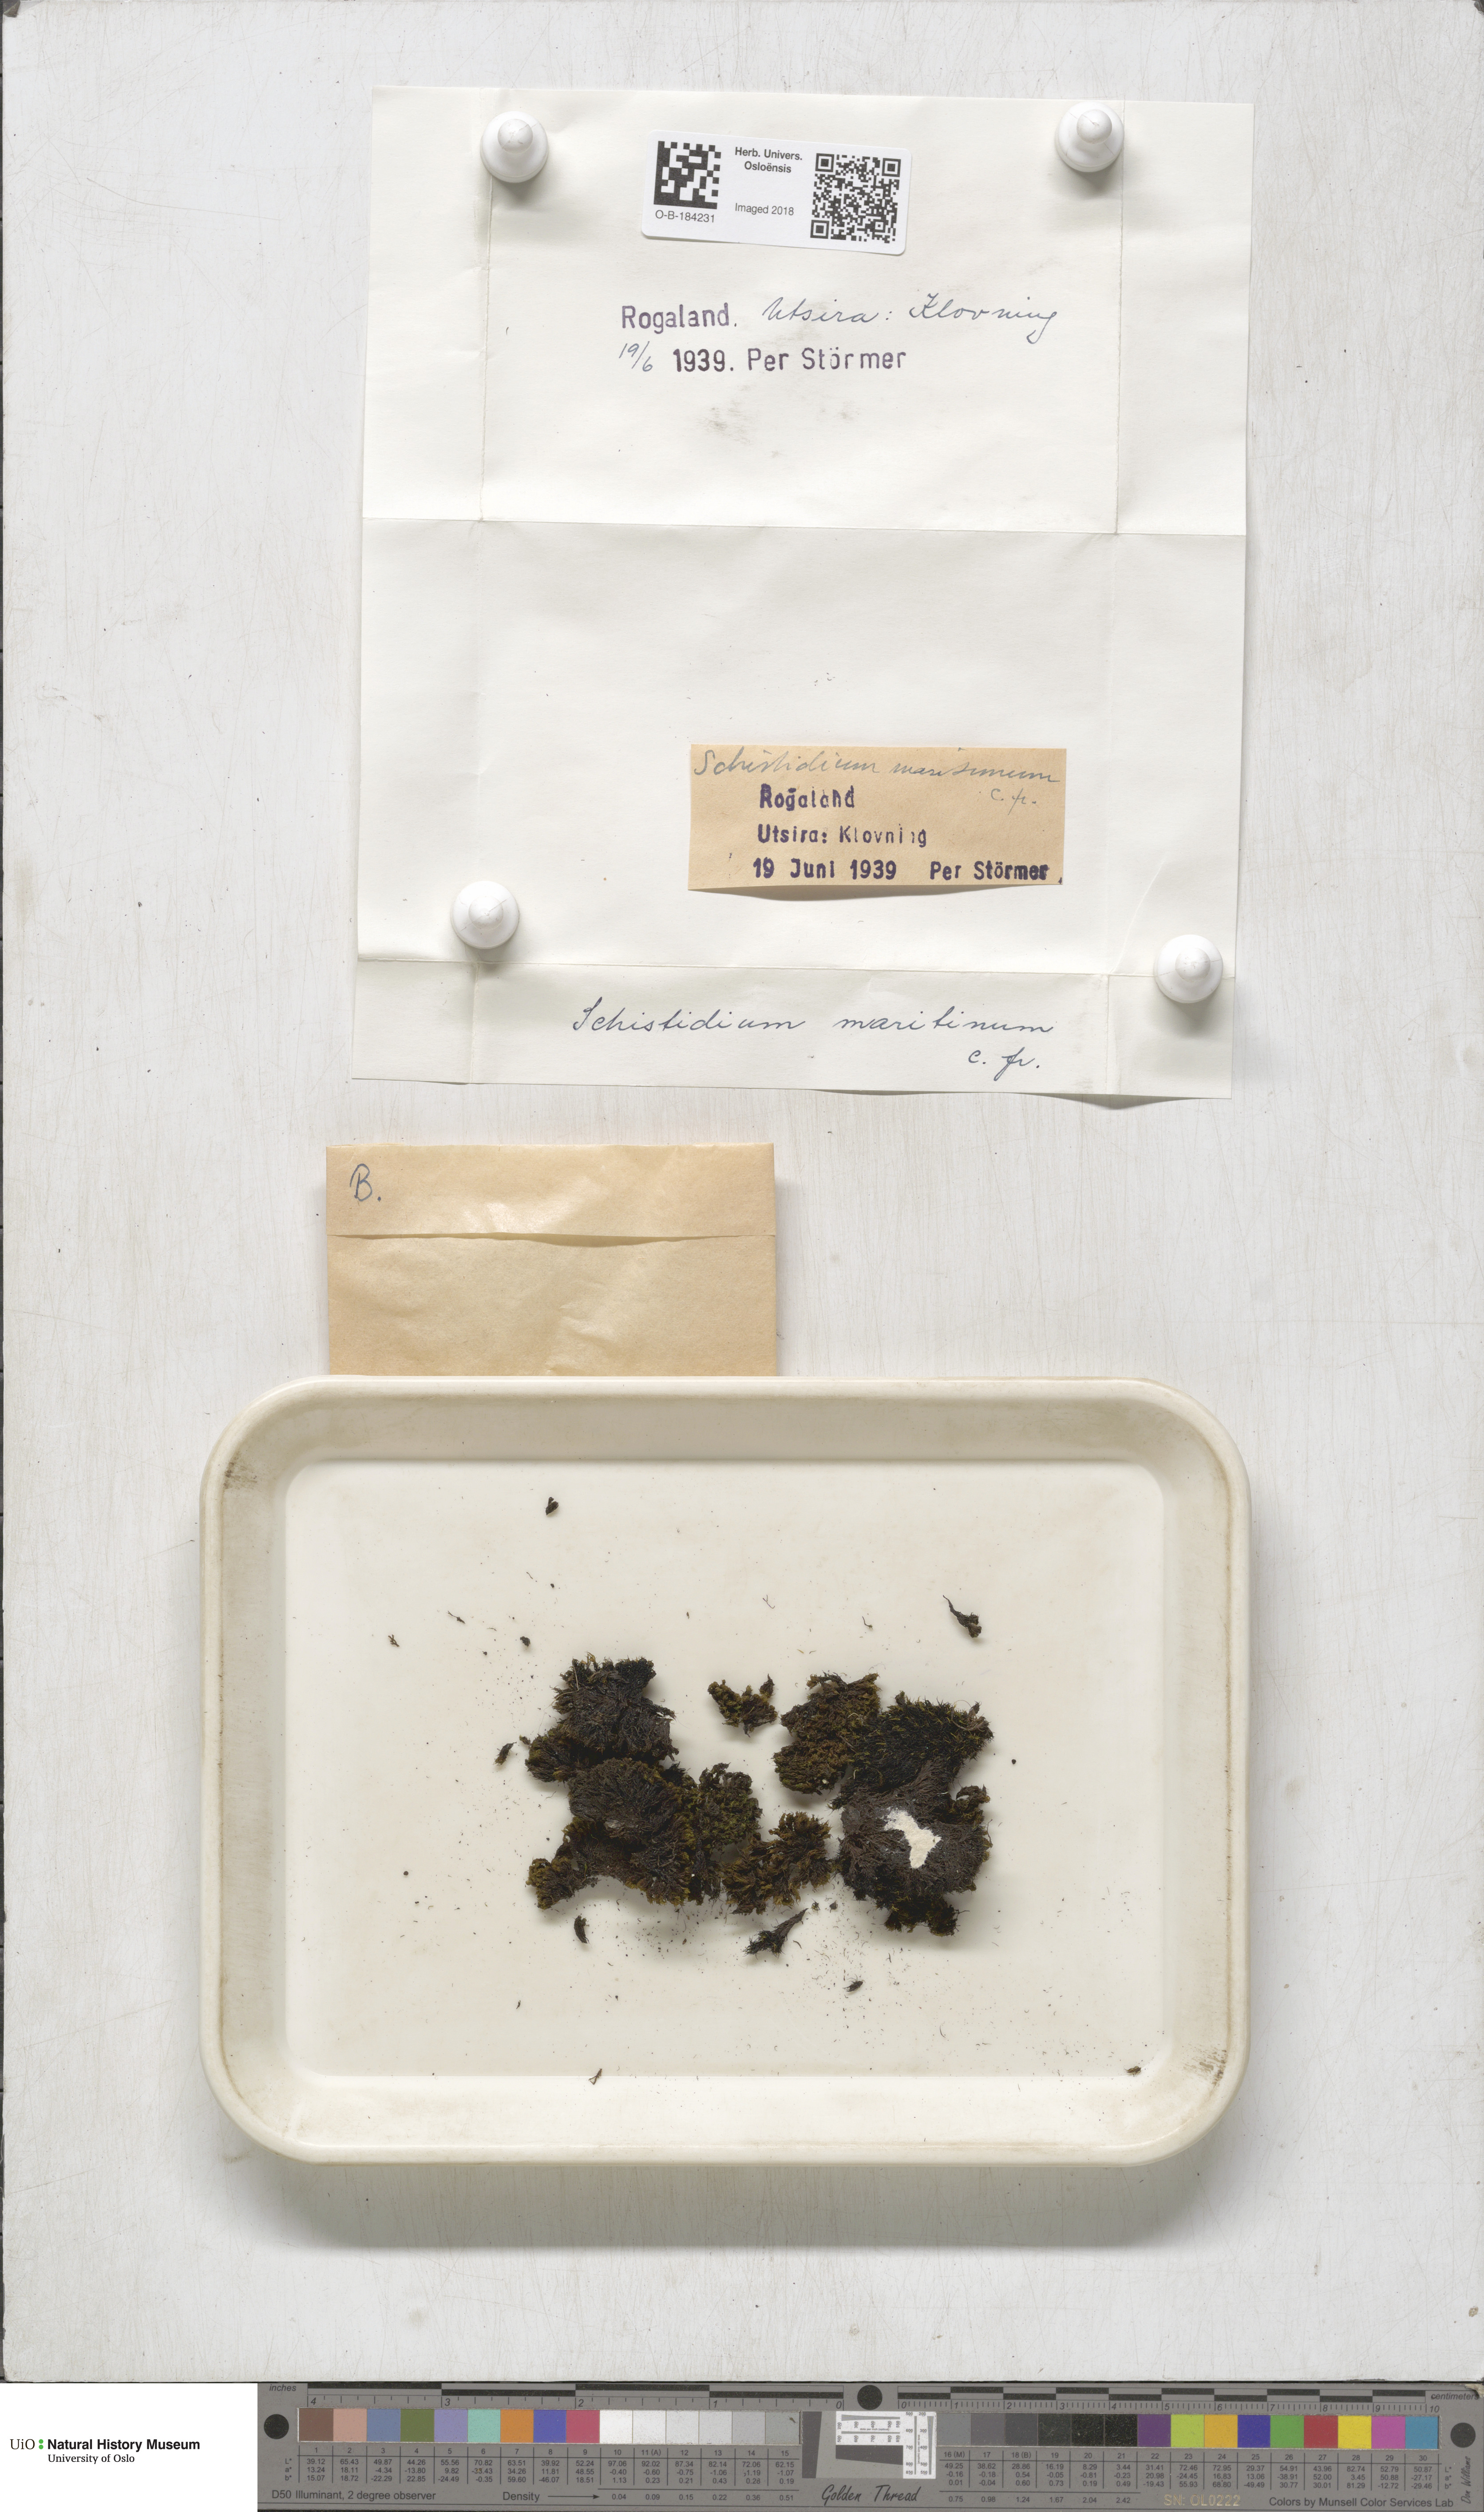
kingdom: Plantae
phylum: Bryophyta
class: Bryopsida
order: Grimmiales
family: Grimmiaceae
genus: Schistidium
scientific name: Schistidium maritimum
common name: Seaside bloom moss
